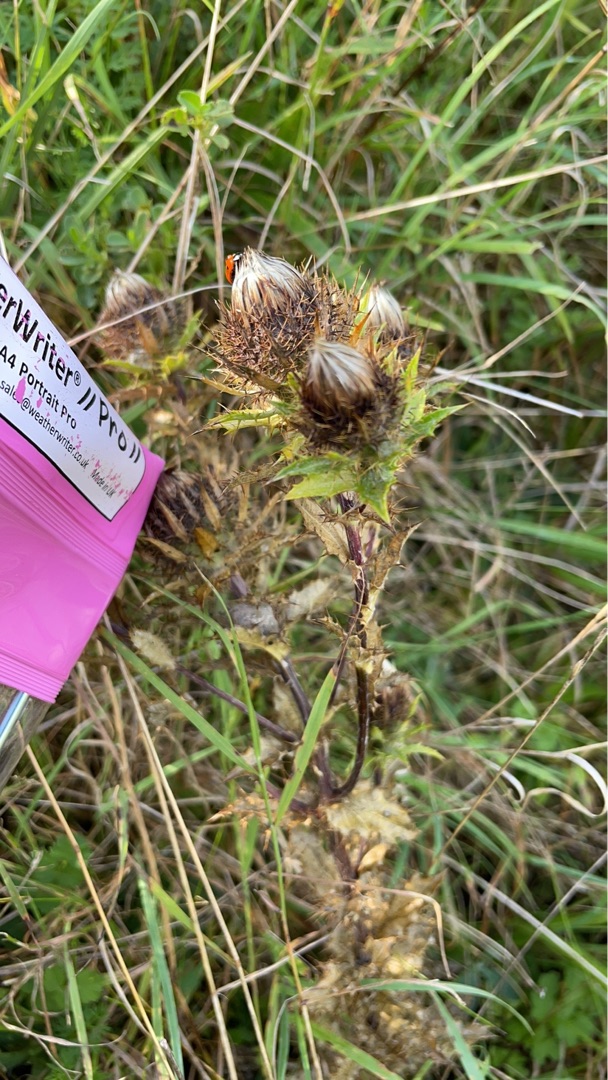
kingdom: Plantae
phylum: Tracheophyta
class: Magnoliopsida
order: Asterales
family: Asteraceae
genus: Carlina
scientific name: Carlina vulgaris
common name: Bakketidsel
